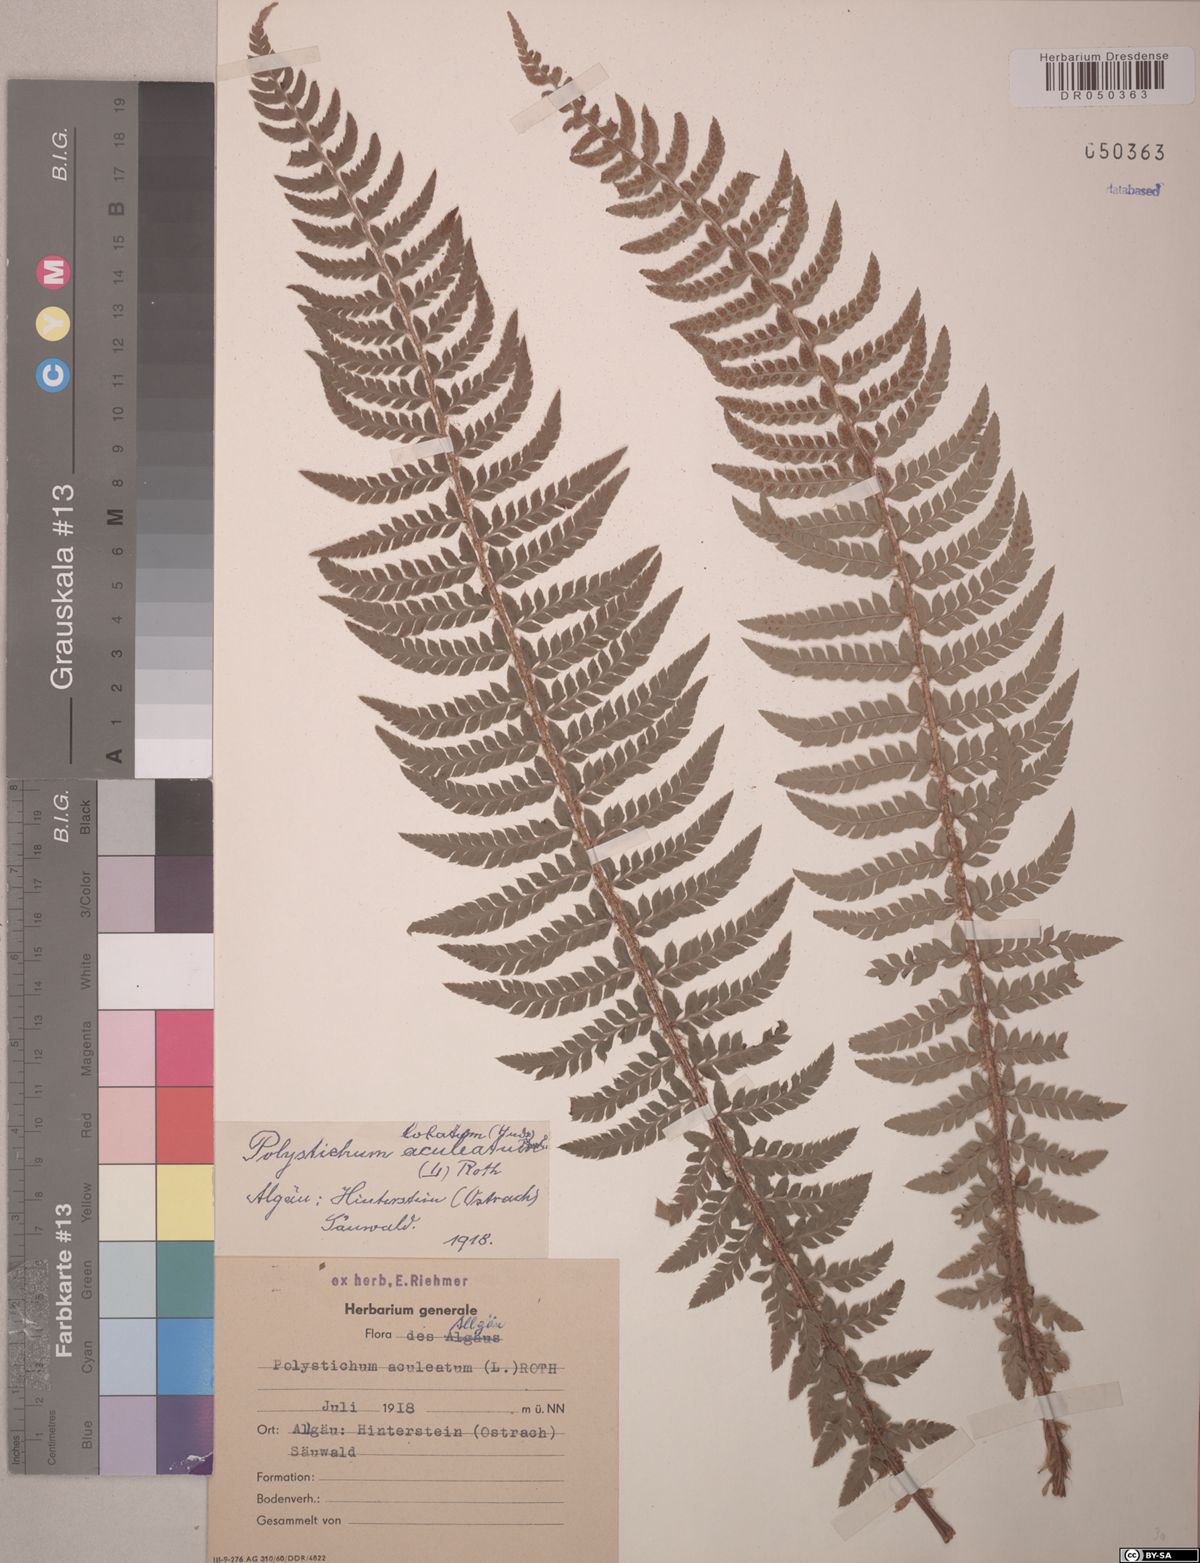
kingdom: Plantae
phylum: Tracheophyta
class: Polypodiopsida
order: Polypodiales
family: Dryopteridaceae
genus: Polystichum
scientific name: Polystichum aculeatum
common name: Hard shield-fern
